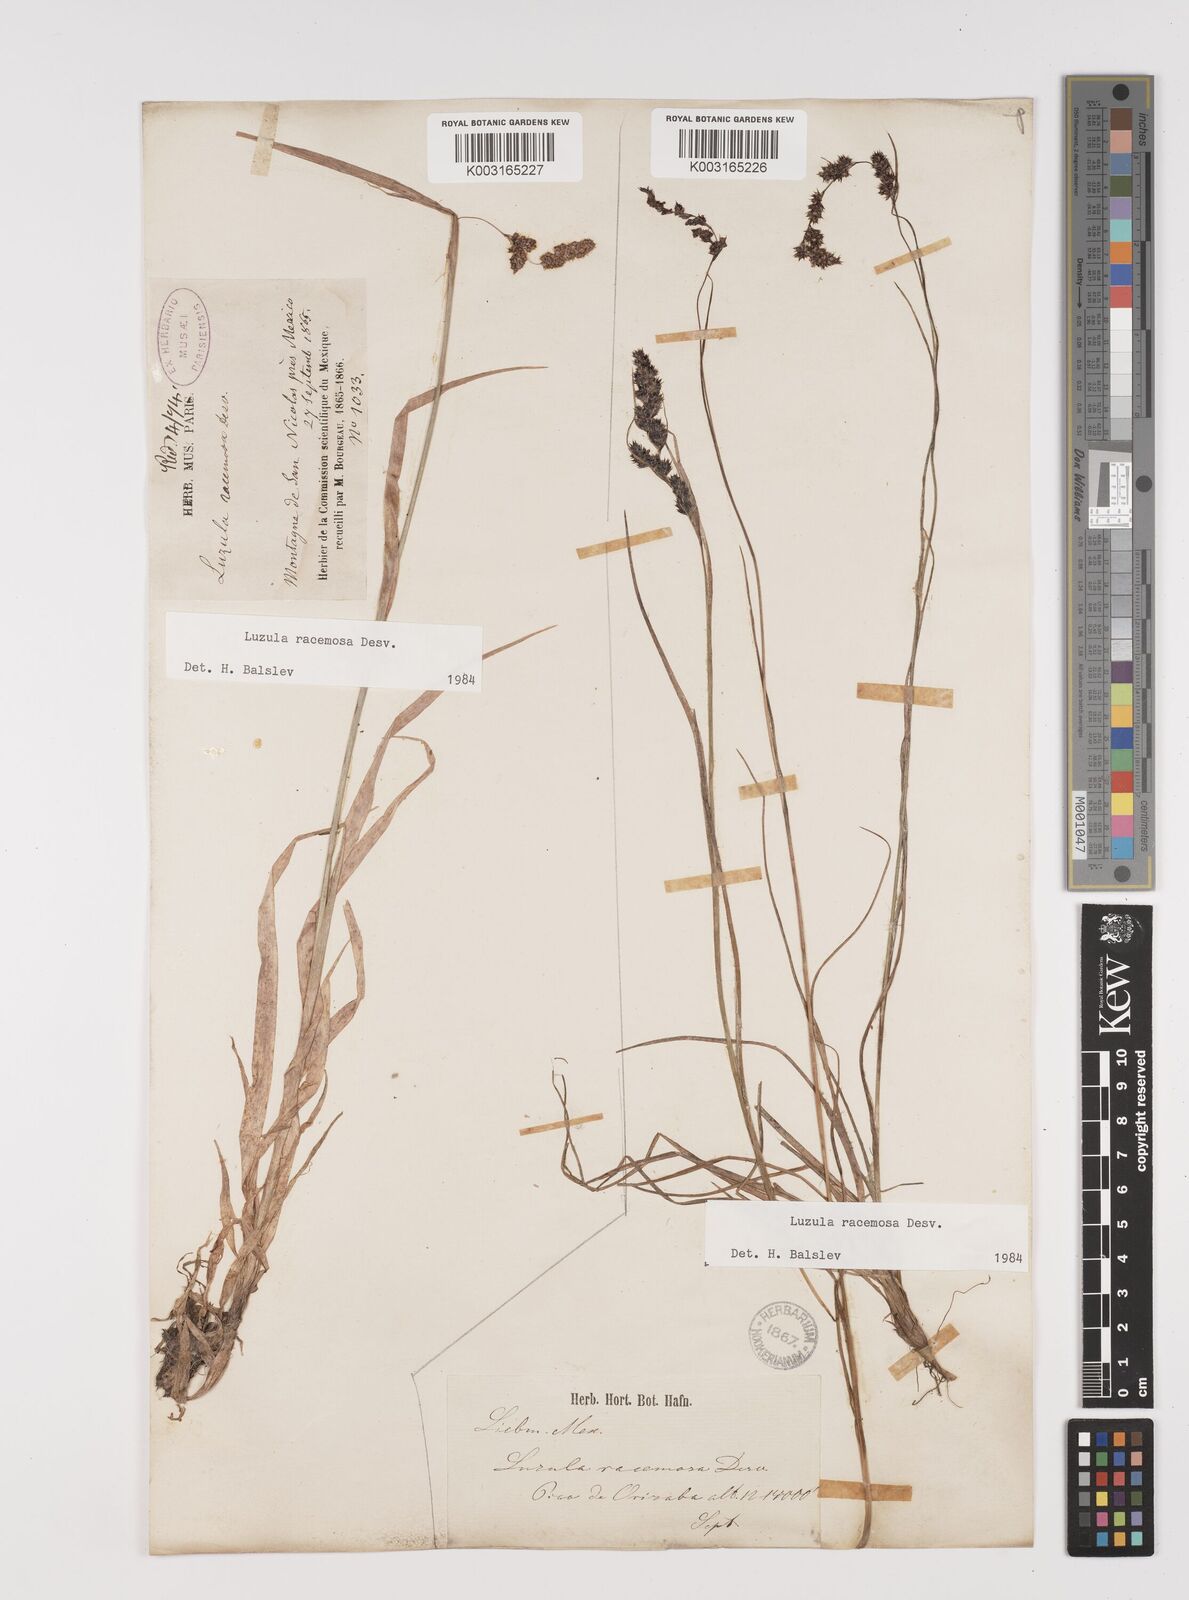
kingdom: Plantae
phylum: Tracheophyta
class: Liliopsida
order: Poales
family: Juncaceae
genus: Luzula
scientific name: Luzula racemosa
